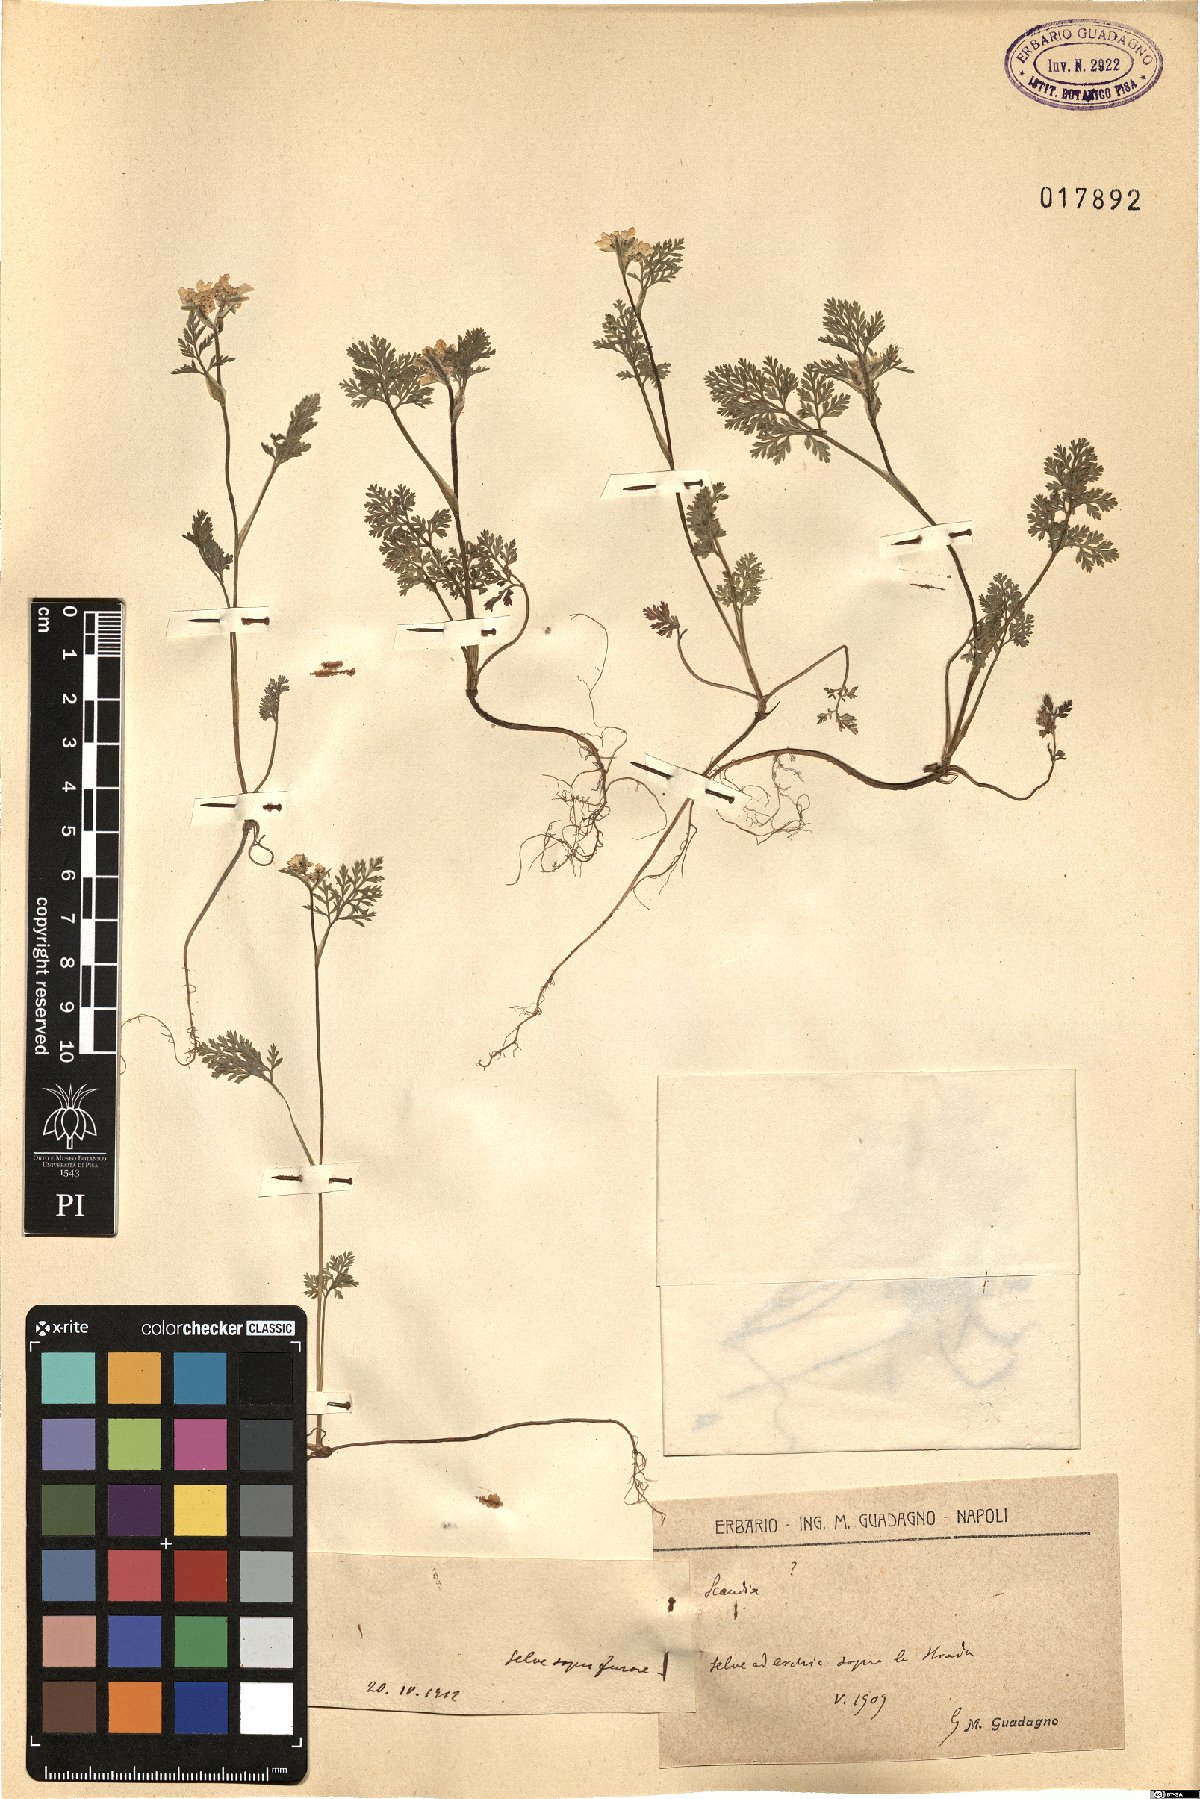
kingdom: Plantae
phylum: Tracheophyta
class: Magnoliopsida
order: Apiales
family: Apiaceae
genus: Scandix
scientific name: Scandix
